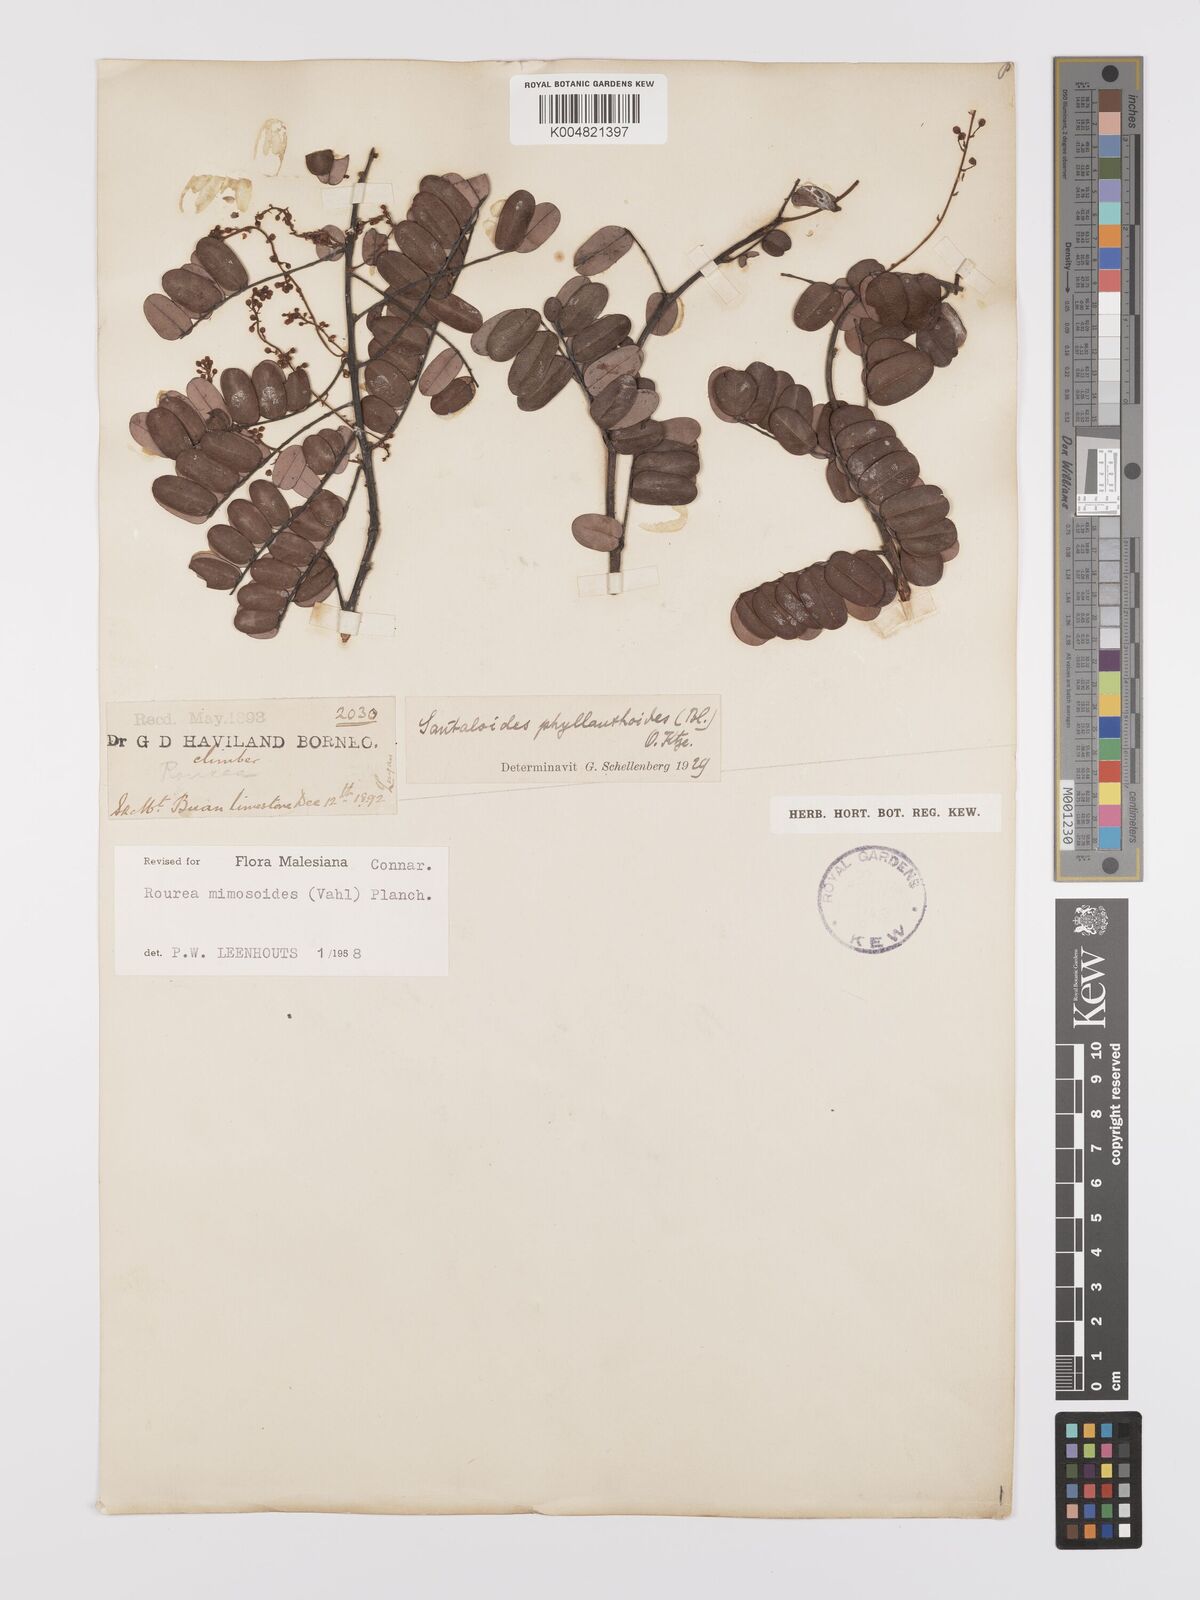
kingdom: Plantae
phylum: Tracheophyta
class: Magnoliopsida
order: Oxalidales
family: Connaraceae
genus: Rourea
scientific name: Rourea mimosoides
